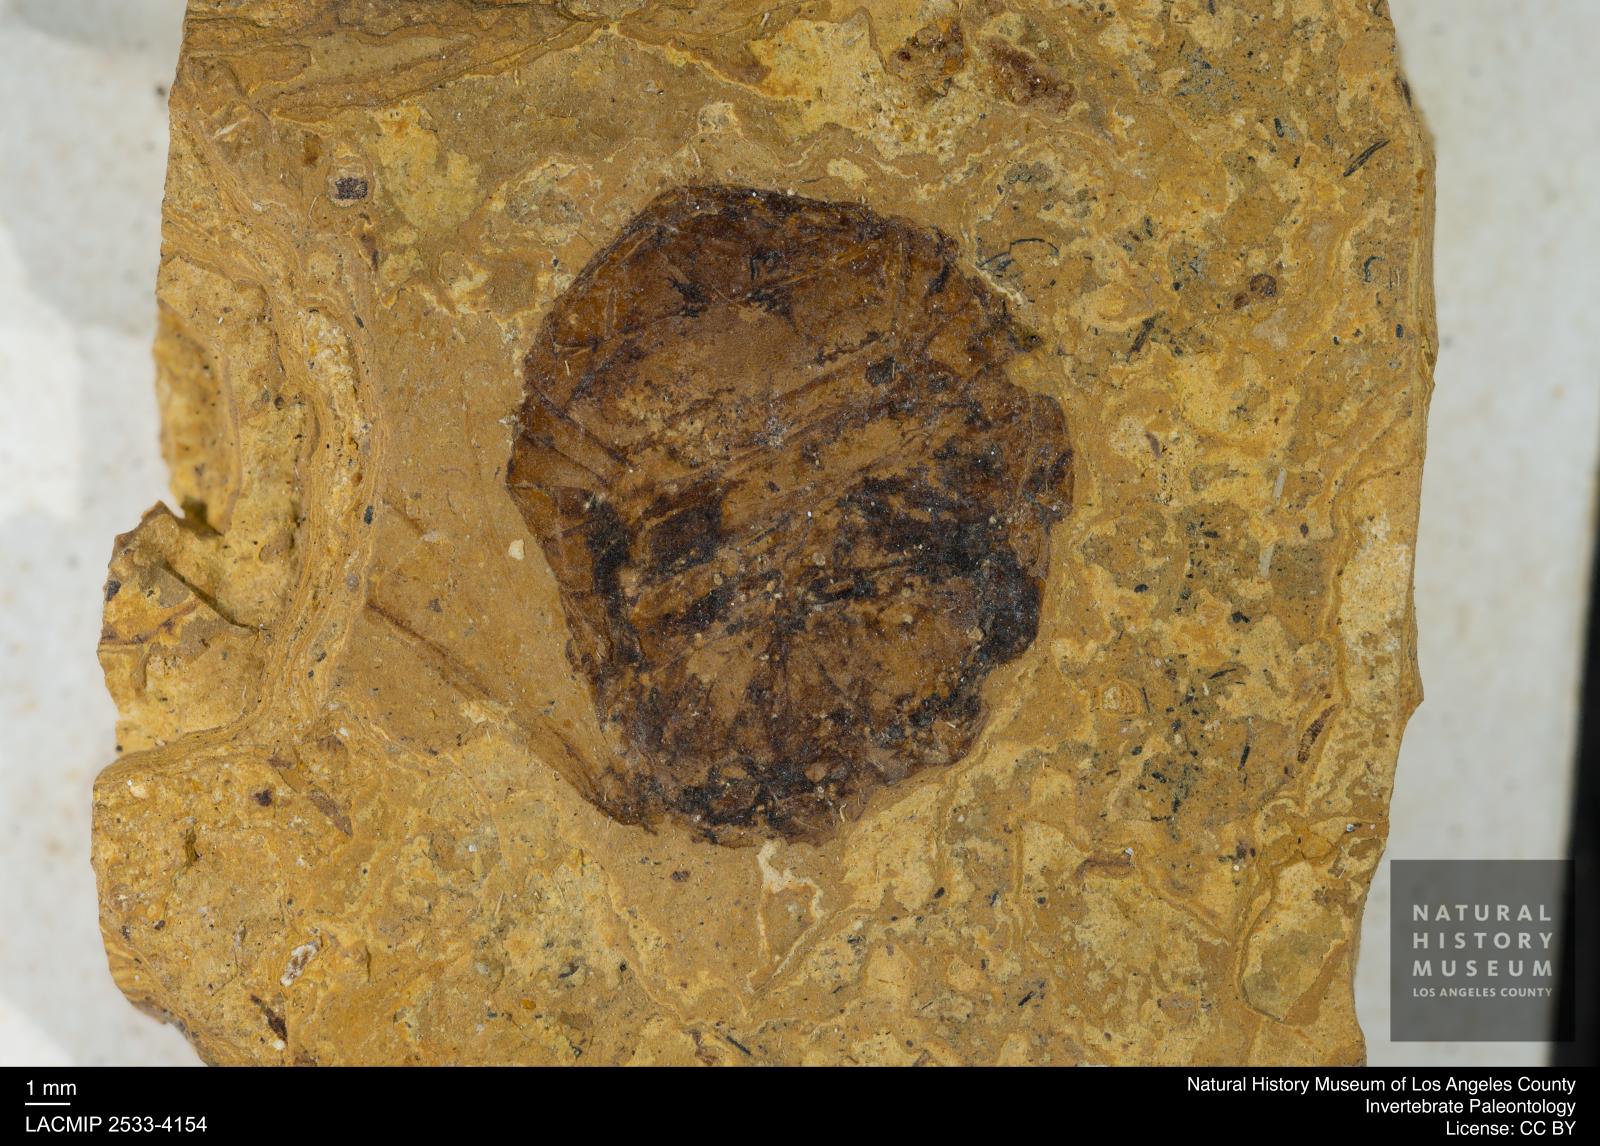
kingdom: Animalia
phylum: Arthropoda
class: Insecta
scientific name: Insecta
